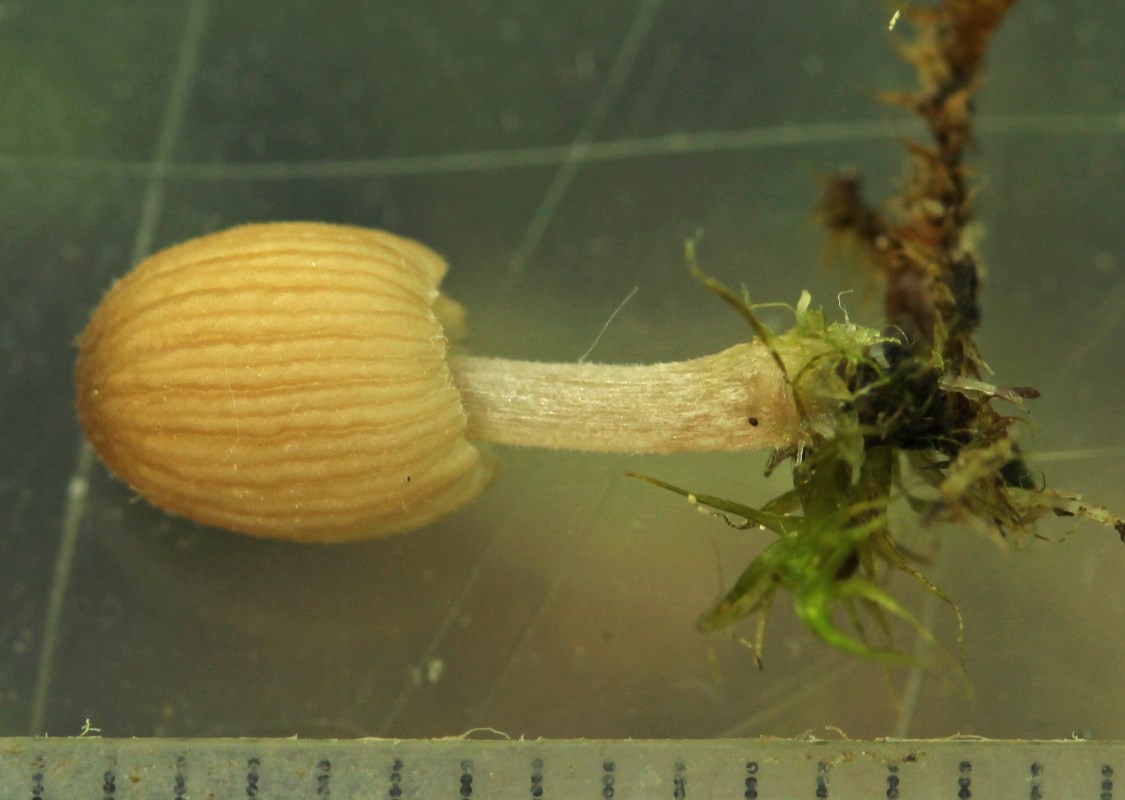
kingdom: Fungi
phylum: Basidiomycota
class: Agaricomycetes
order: Agaricales
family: Psathyrellaceae
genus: Coprinellus
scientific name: Coprinellus disseminatus
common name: bredsået blækhat
